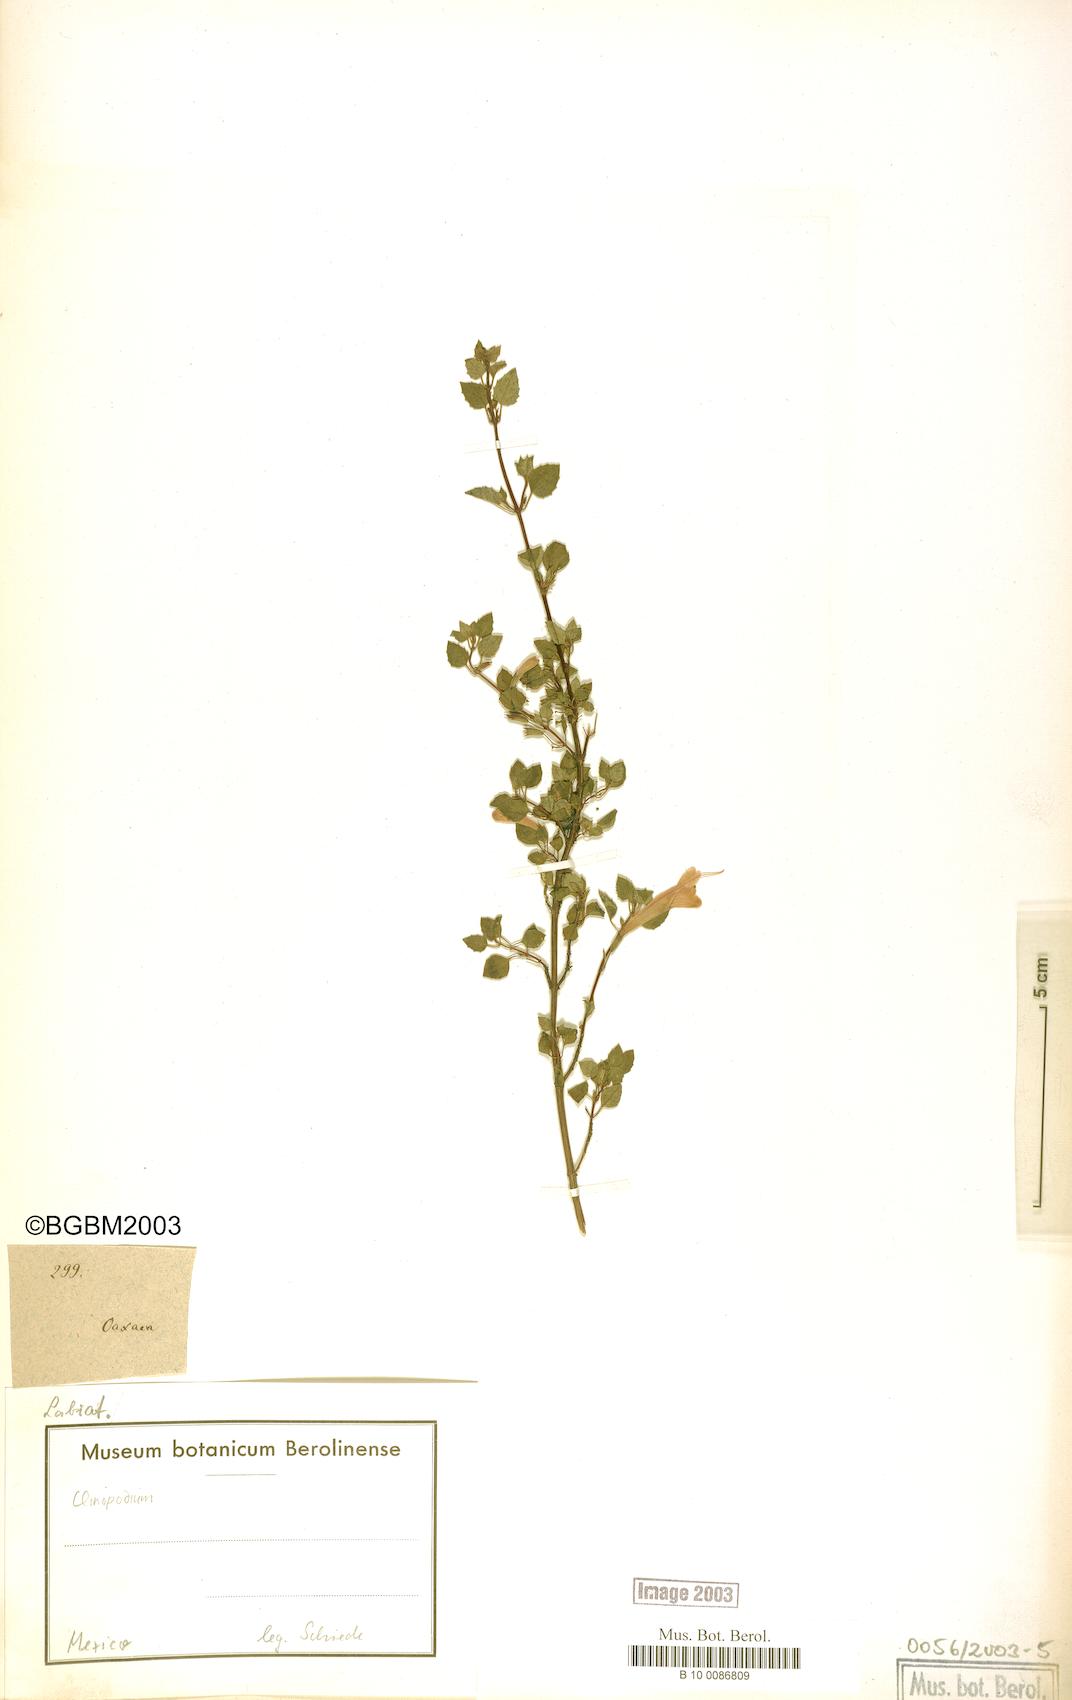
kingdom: Plantae
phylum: Tracheophyta
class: Magnoliopsida
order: Lamiales
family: Lamiaceae
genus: Clinopodium
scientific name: Clinopodium
